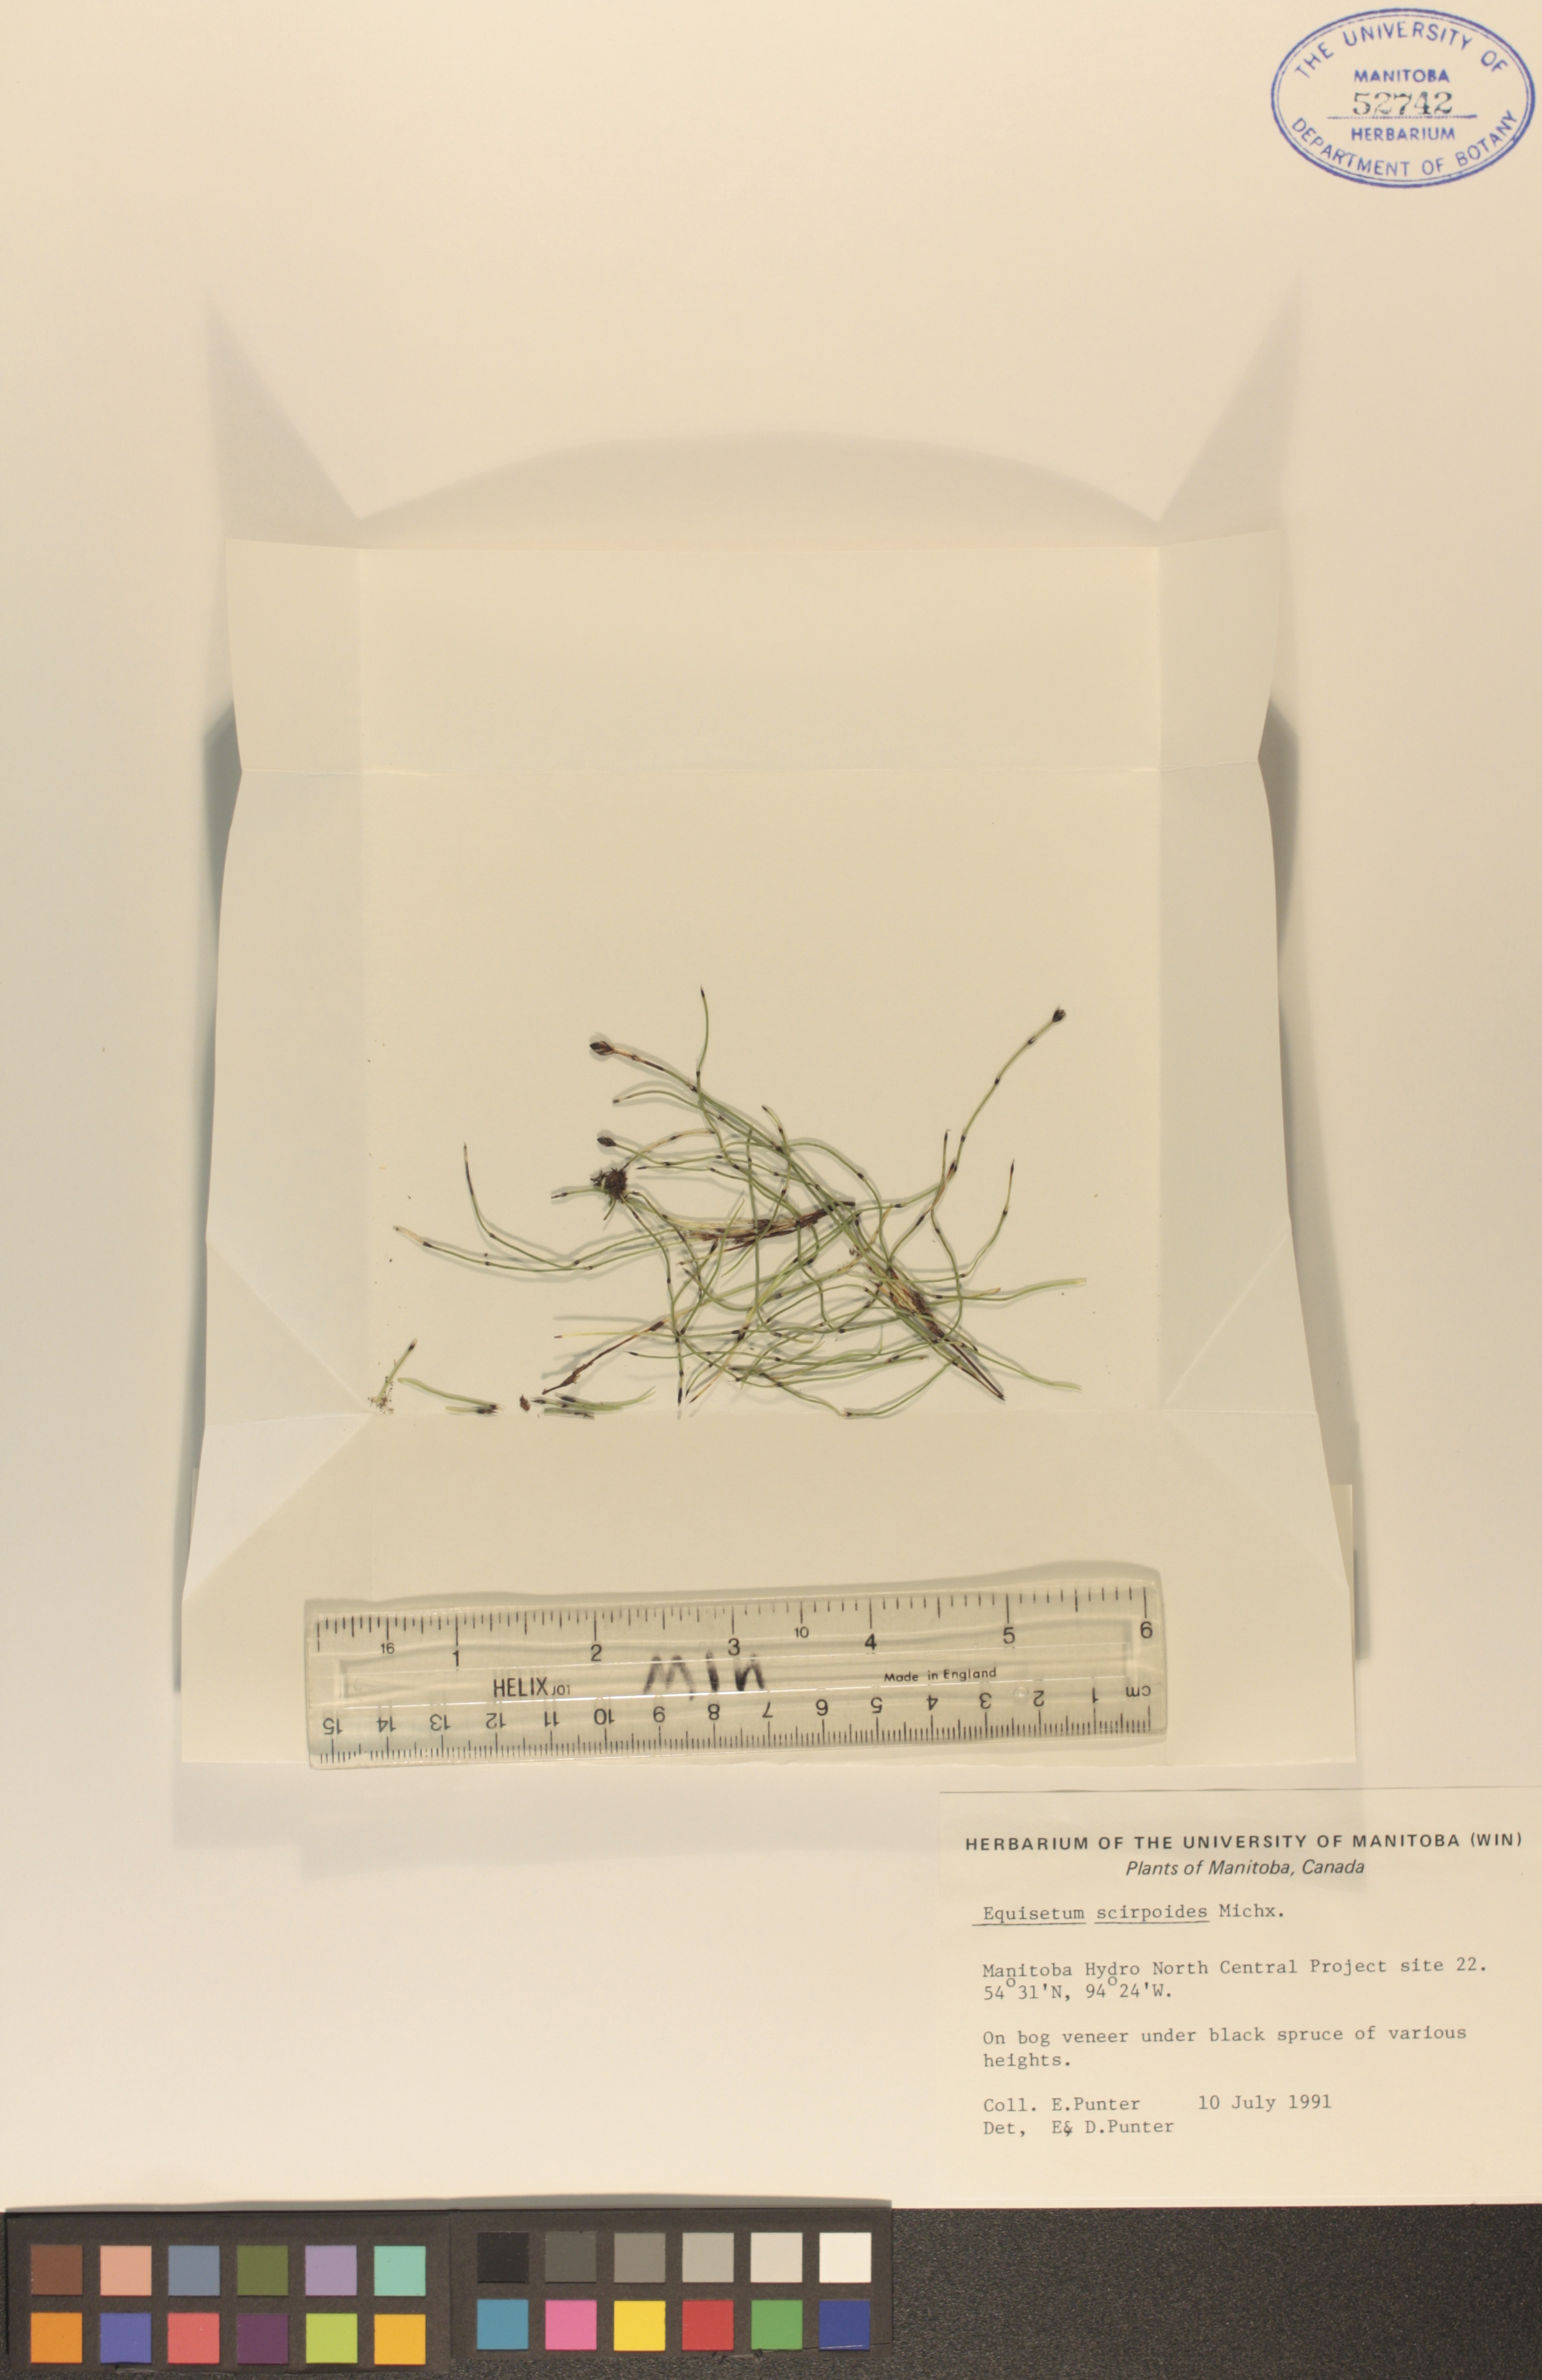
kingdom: Plantae
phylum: Tracheophyta
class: Polypodiopsida
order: Equisetales
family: Equisetaceae
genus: Equisetum
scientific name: Equisetum scirpoides
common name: Delicate horsetail
